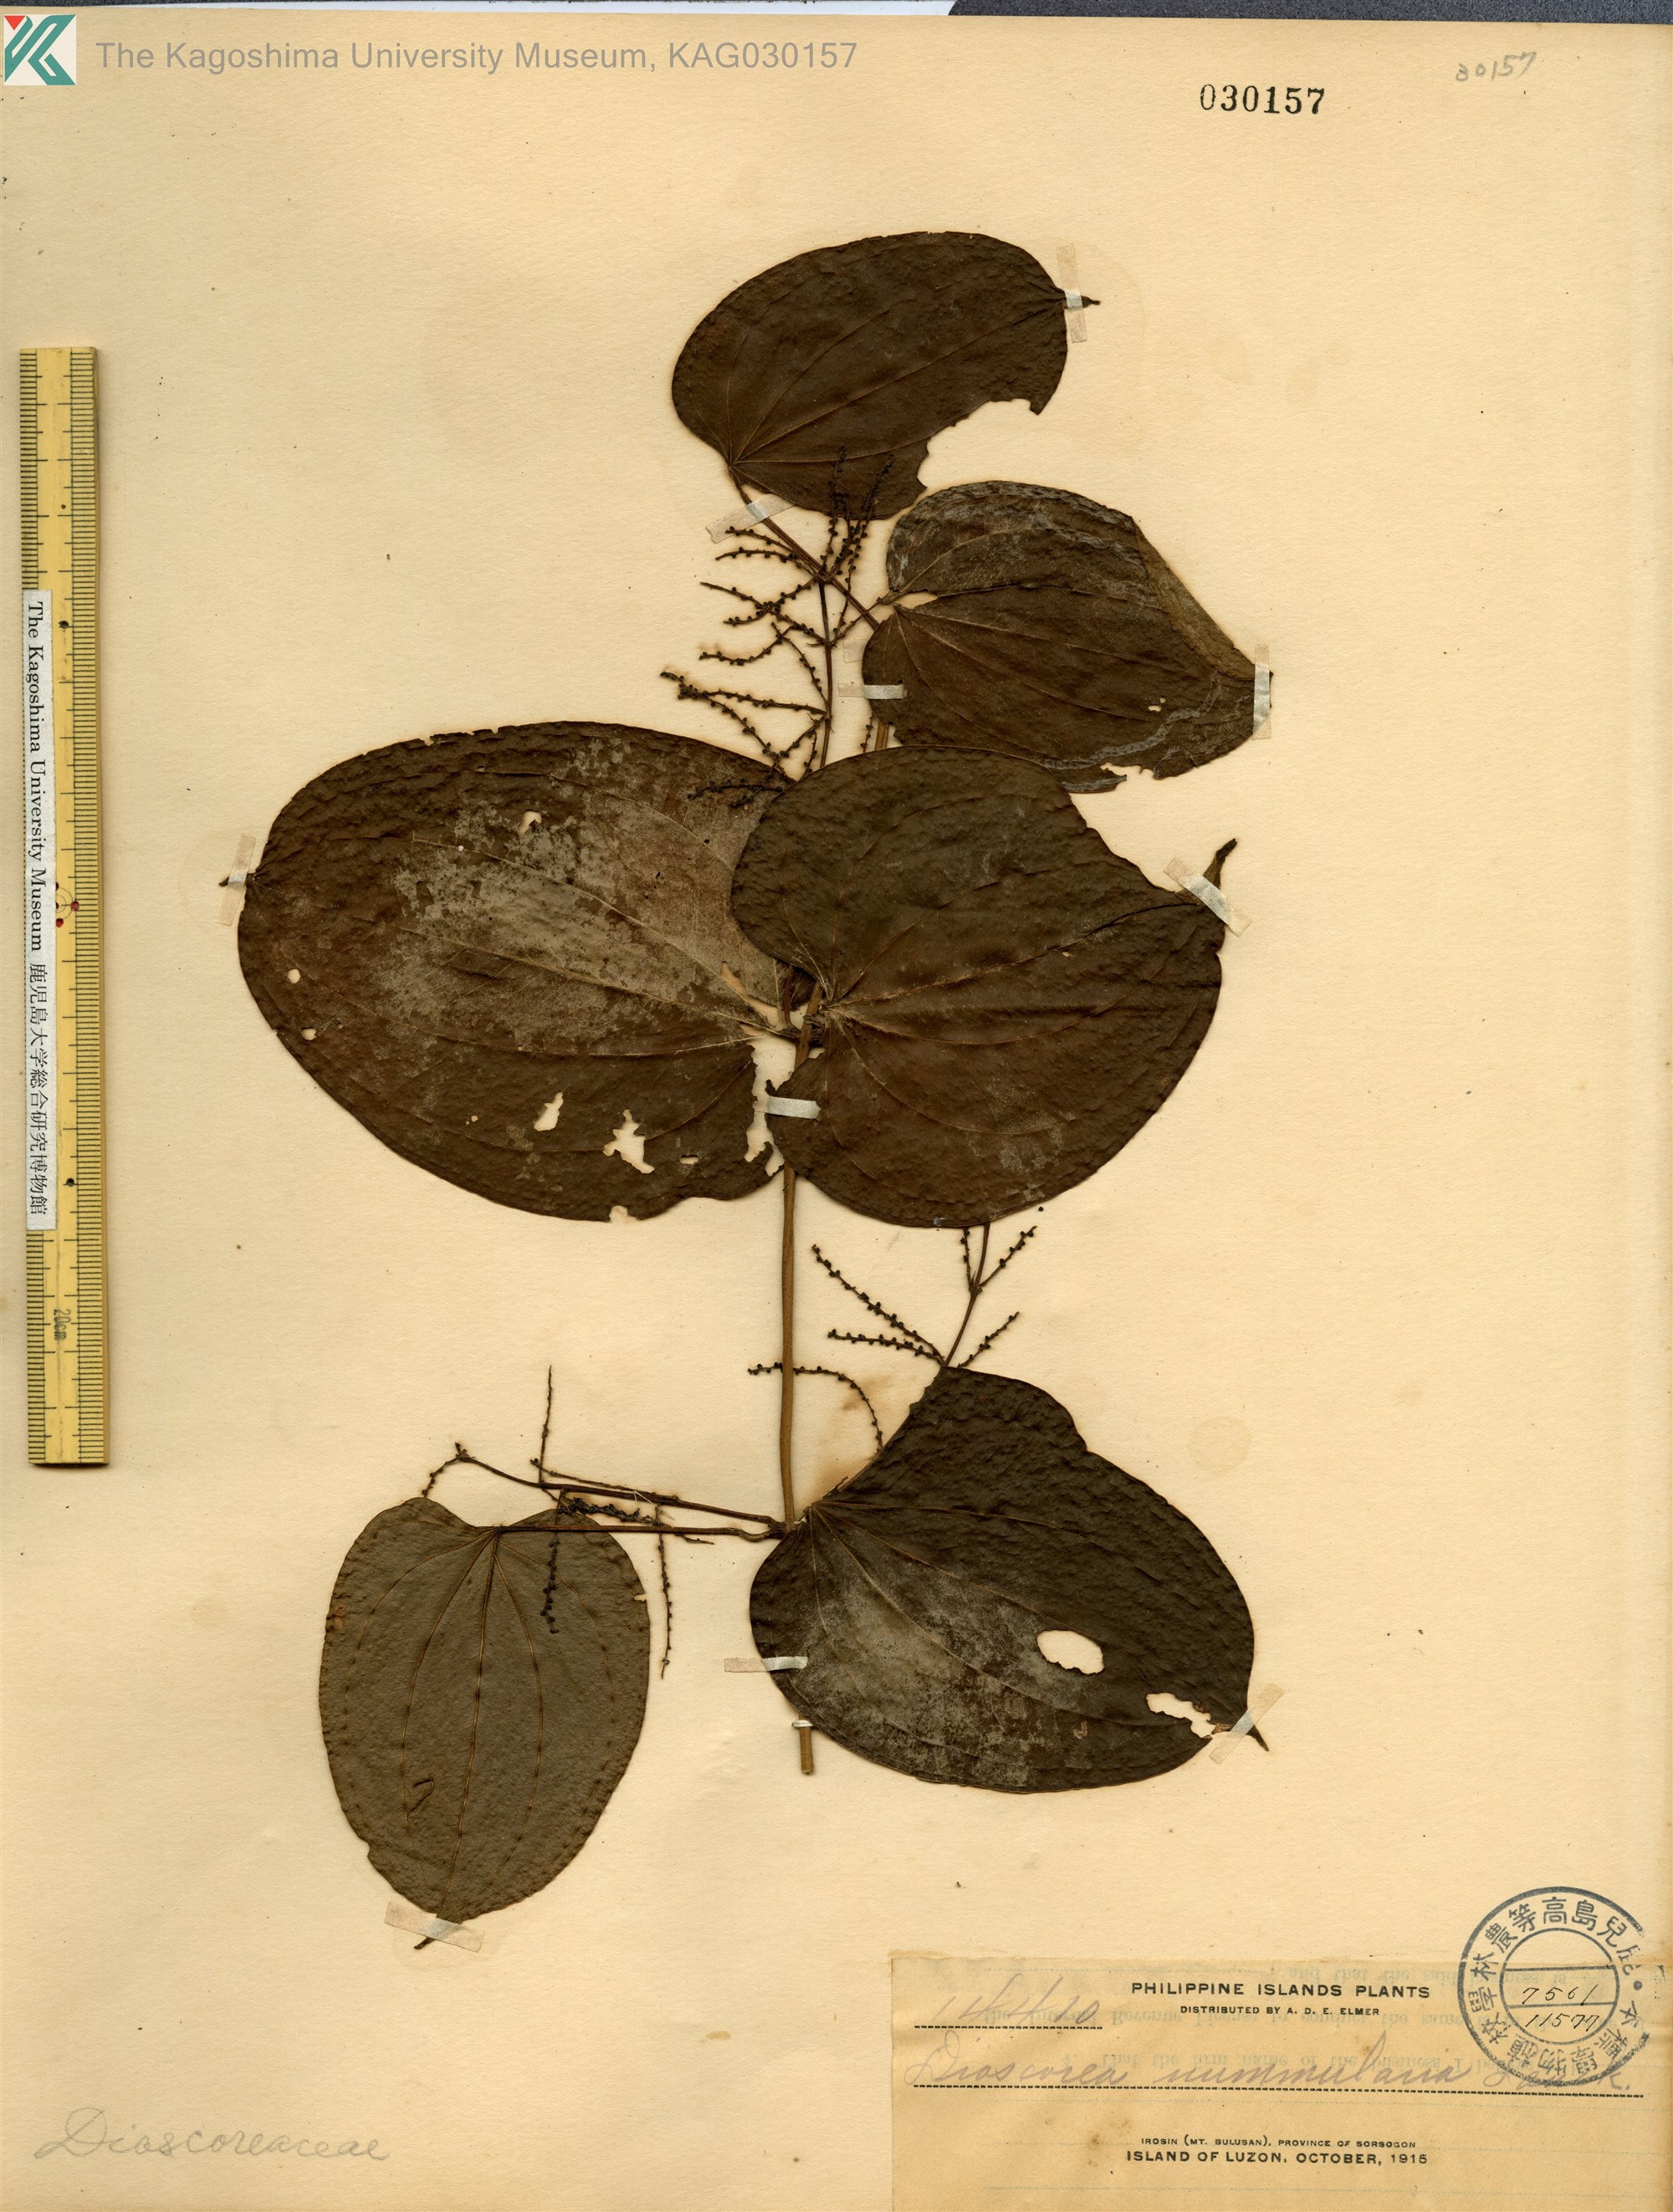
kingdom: Plantae
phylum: Tracheophyta
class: Liliopsida
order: Dioscoreales
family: Dioscoreaceae
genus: Dioscorea
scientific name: Dioscorea nummularia
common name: Pacific yam
